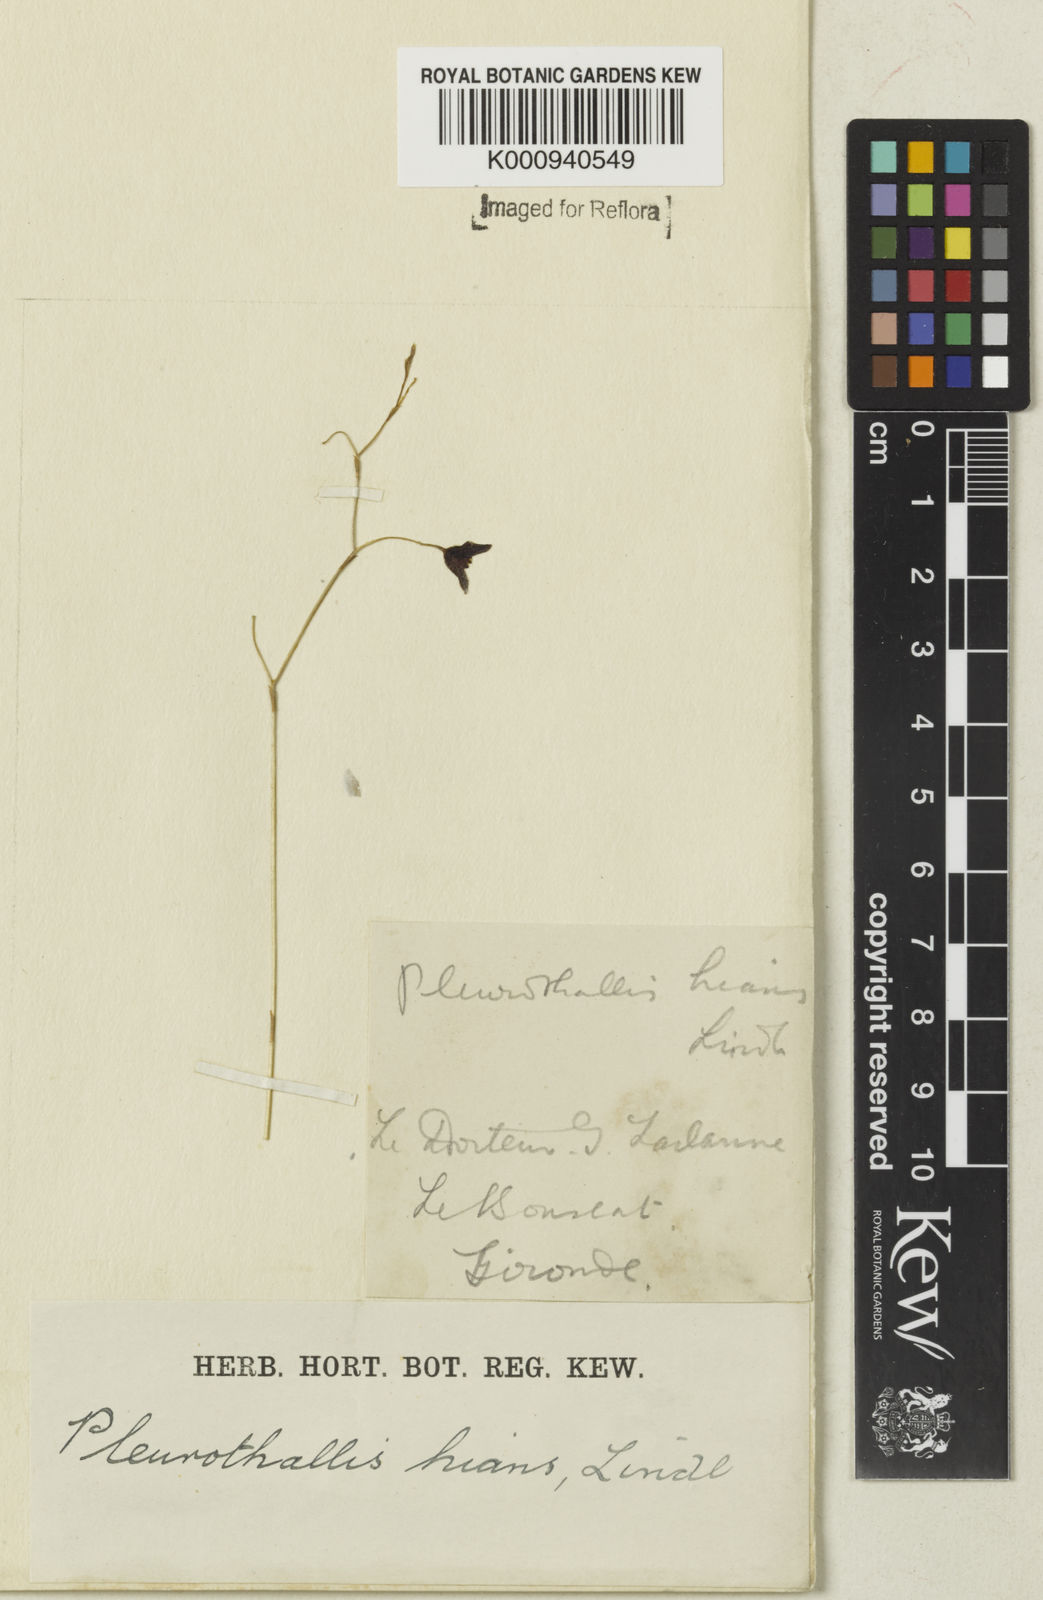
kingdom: Plantae
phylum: Tracheophyta
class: Liliopsida
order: Asparagales
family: Orchidaceae
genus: Stelis
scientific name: Stelis gunningiana
